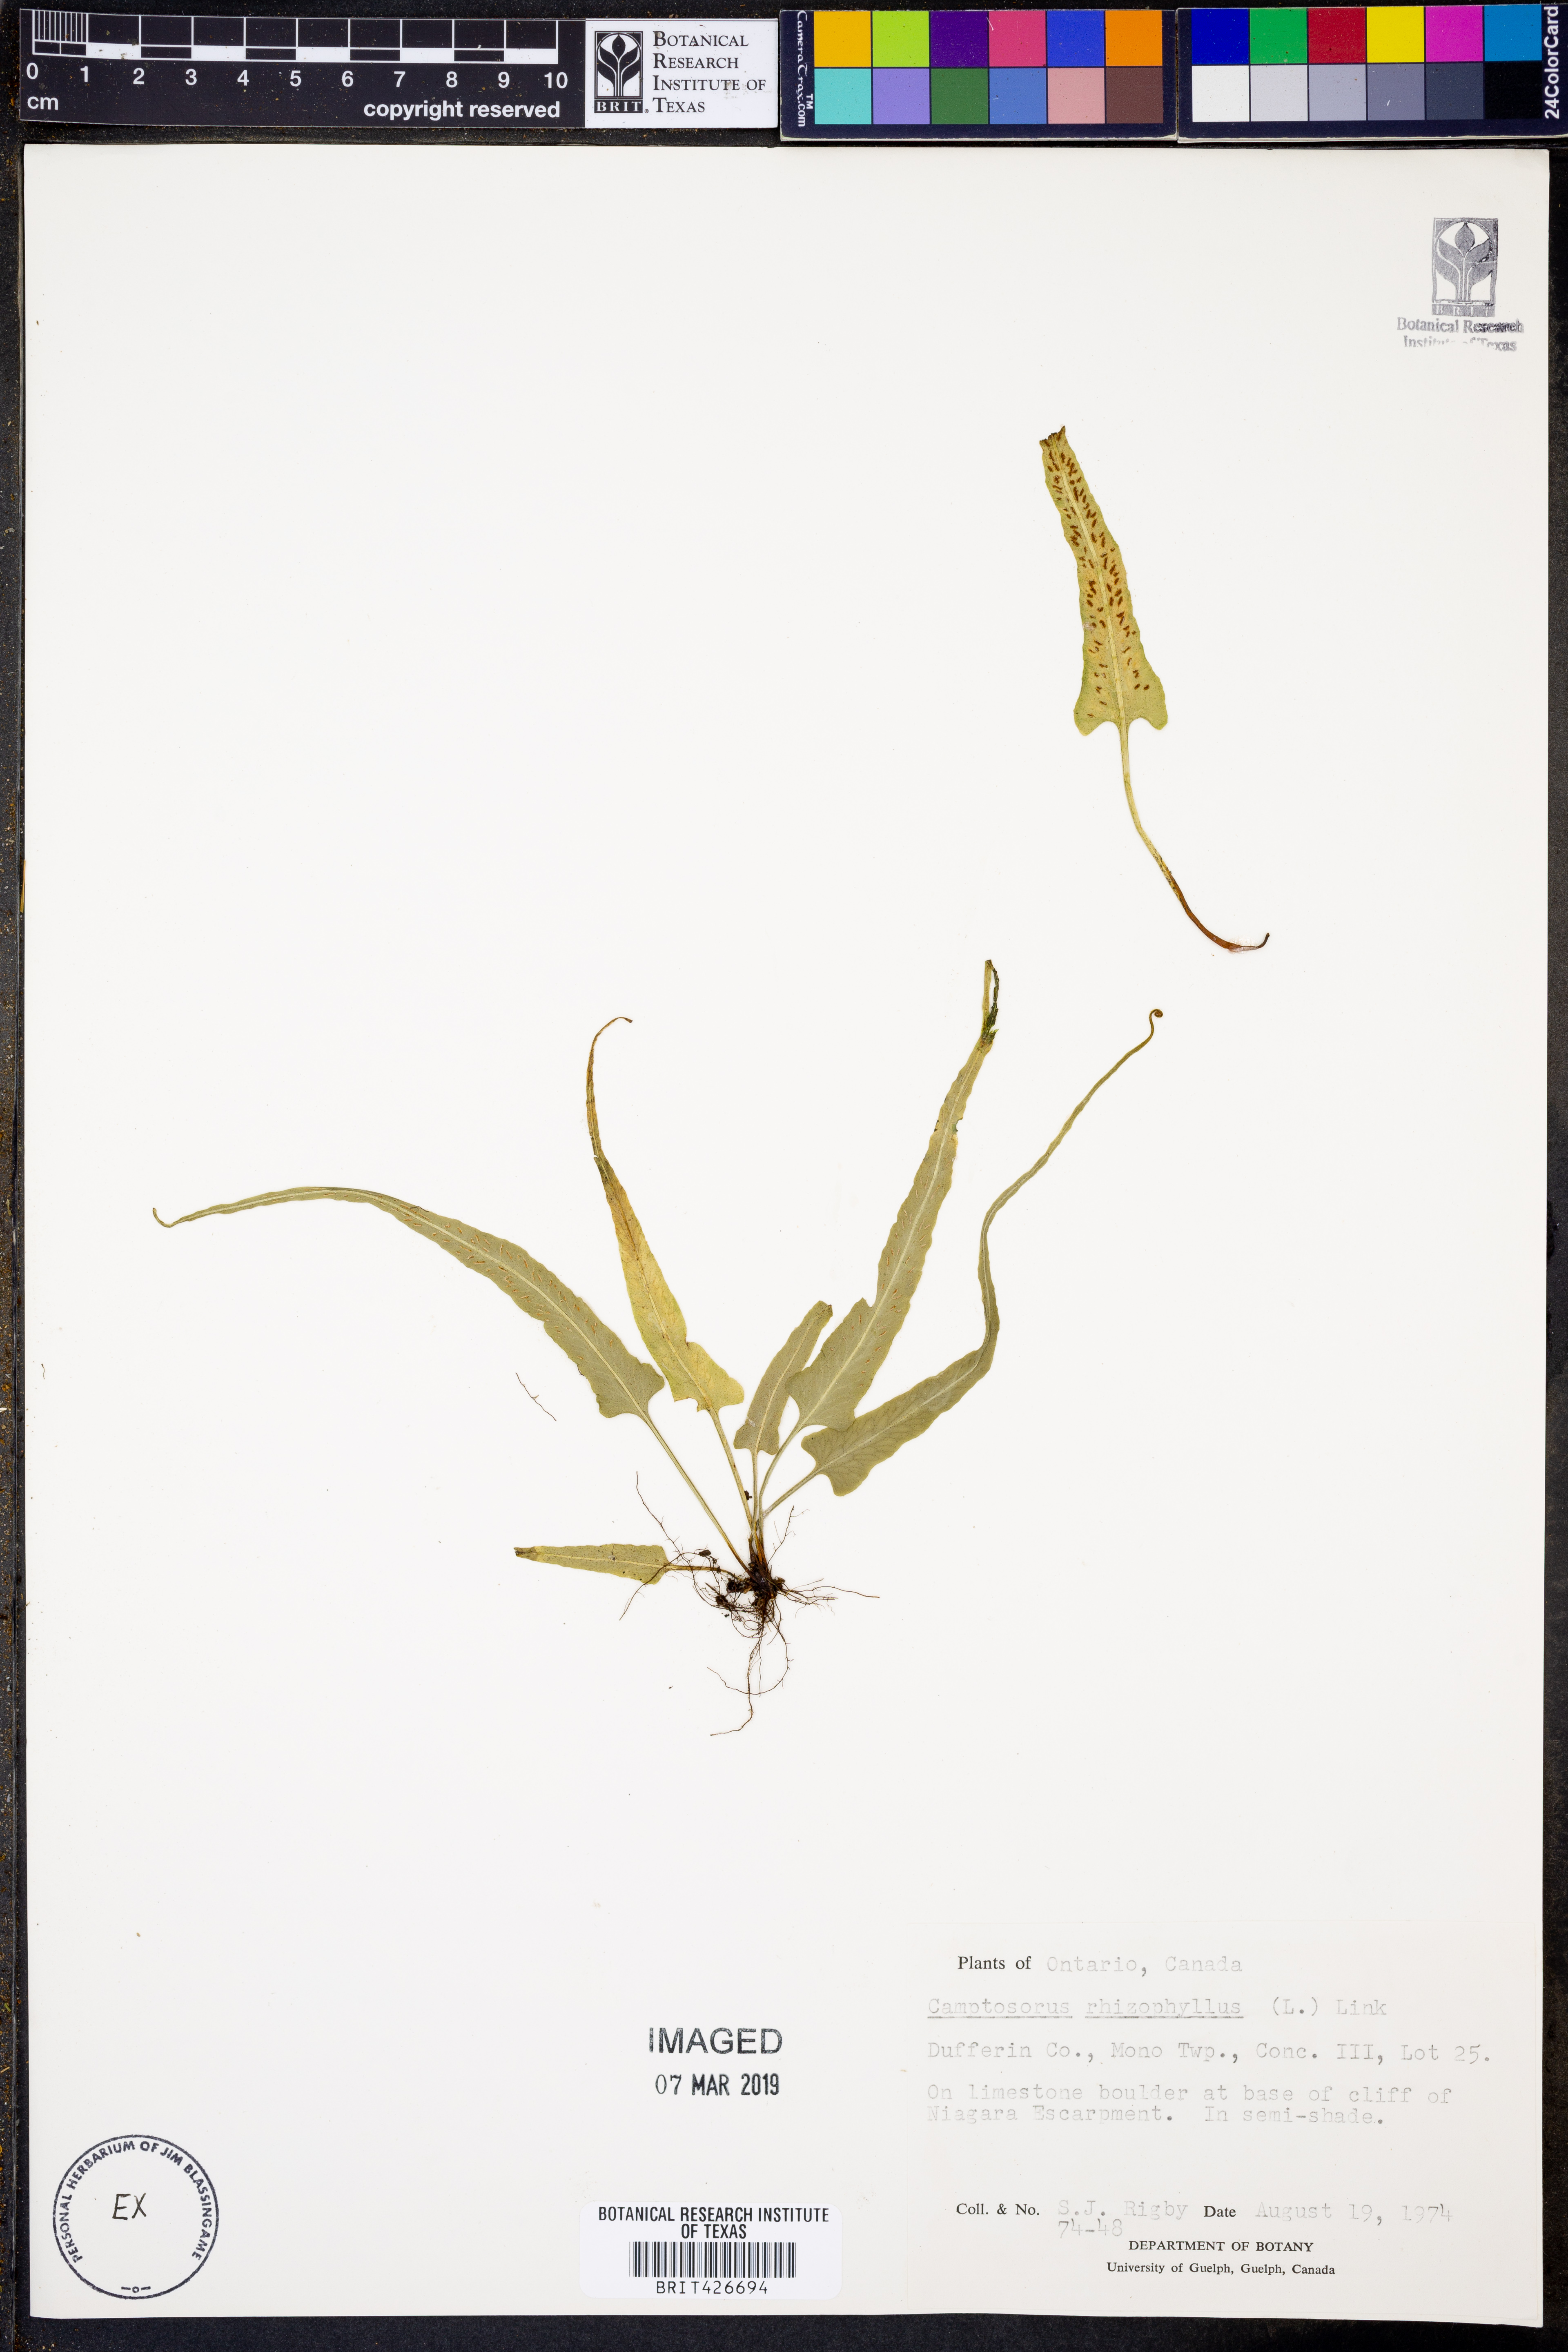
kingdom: Plantae
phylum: Tracheophyta
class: Polypodiopsida
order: Polypodiales
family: Aspleniaceae
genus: Asplenium
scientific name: Asplenium rhizophyllum
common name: Walking fern
